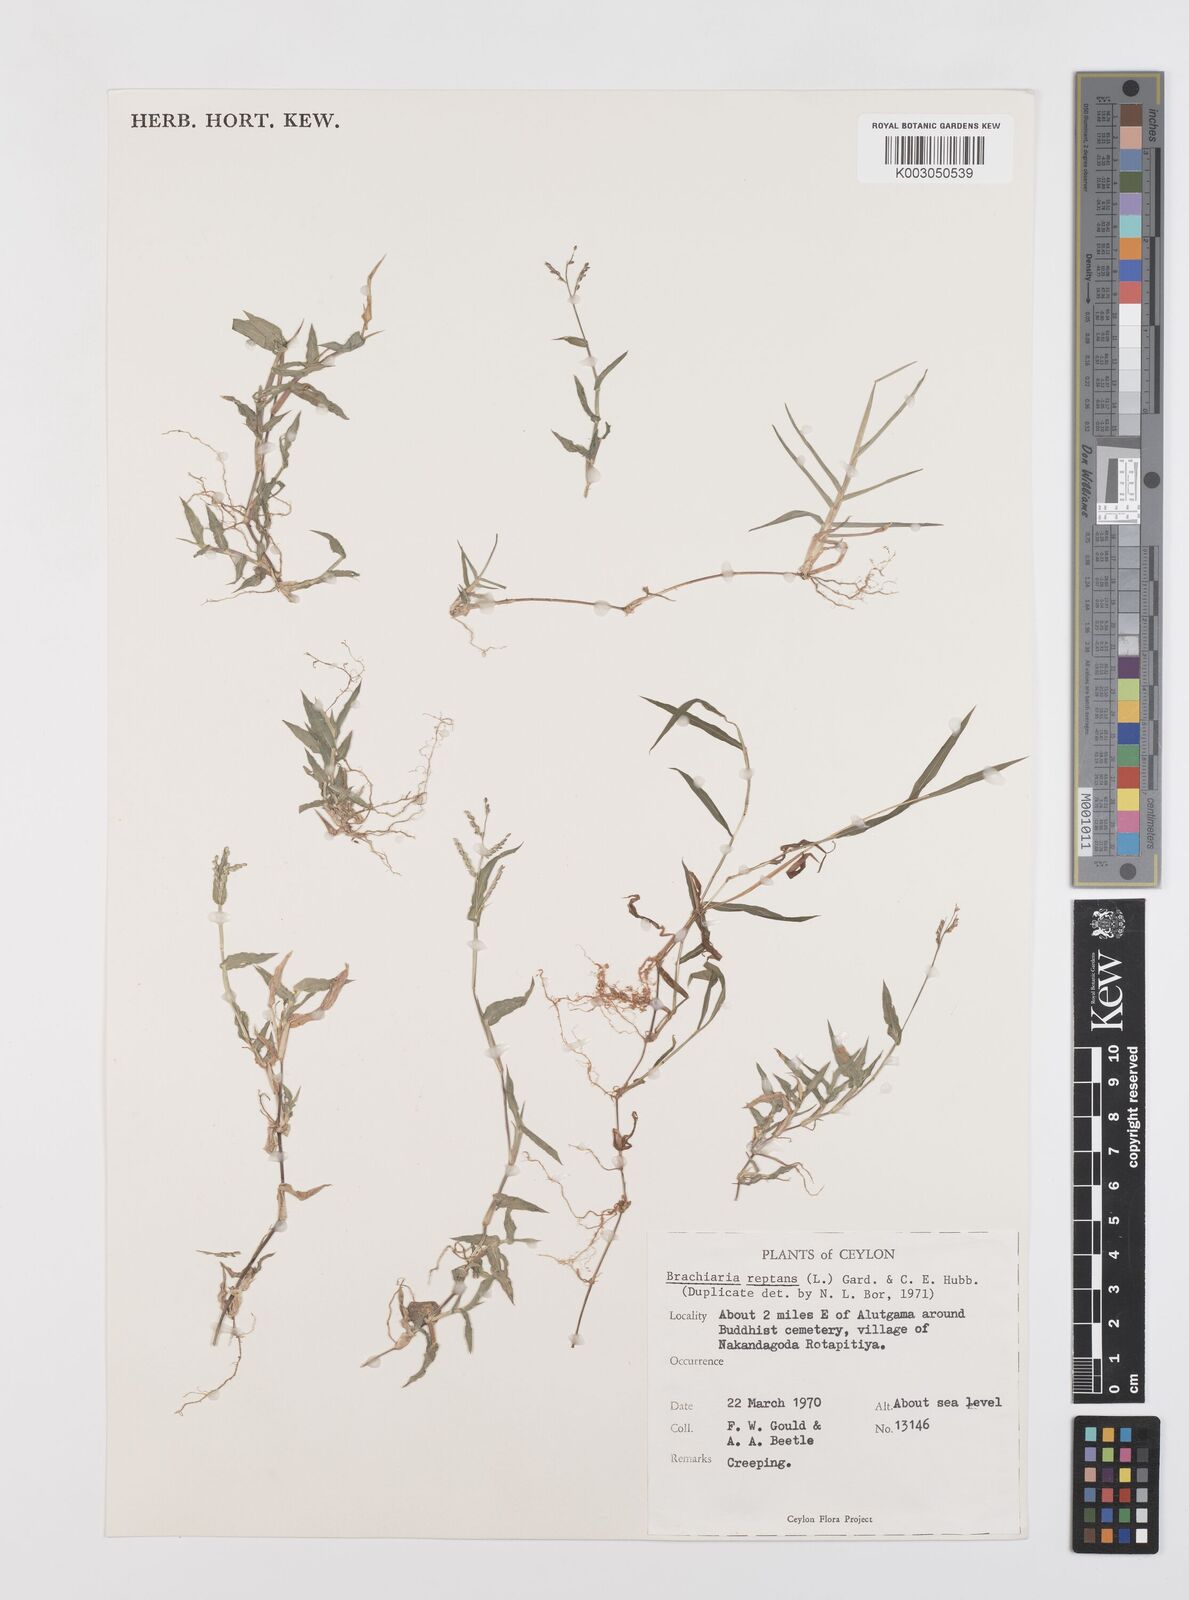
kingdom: Plantae
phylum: Tracheophyta
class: Liliopsida
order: Poales
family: Poaceae
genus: Urochloa
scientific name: Urochloa reptans
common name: Sprawling signalgrass
